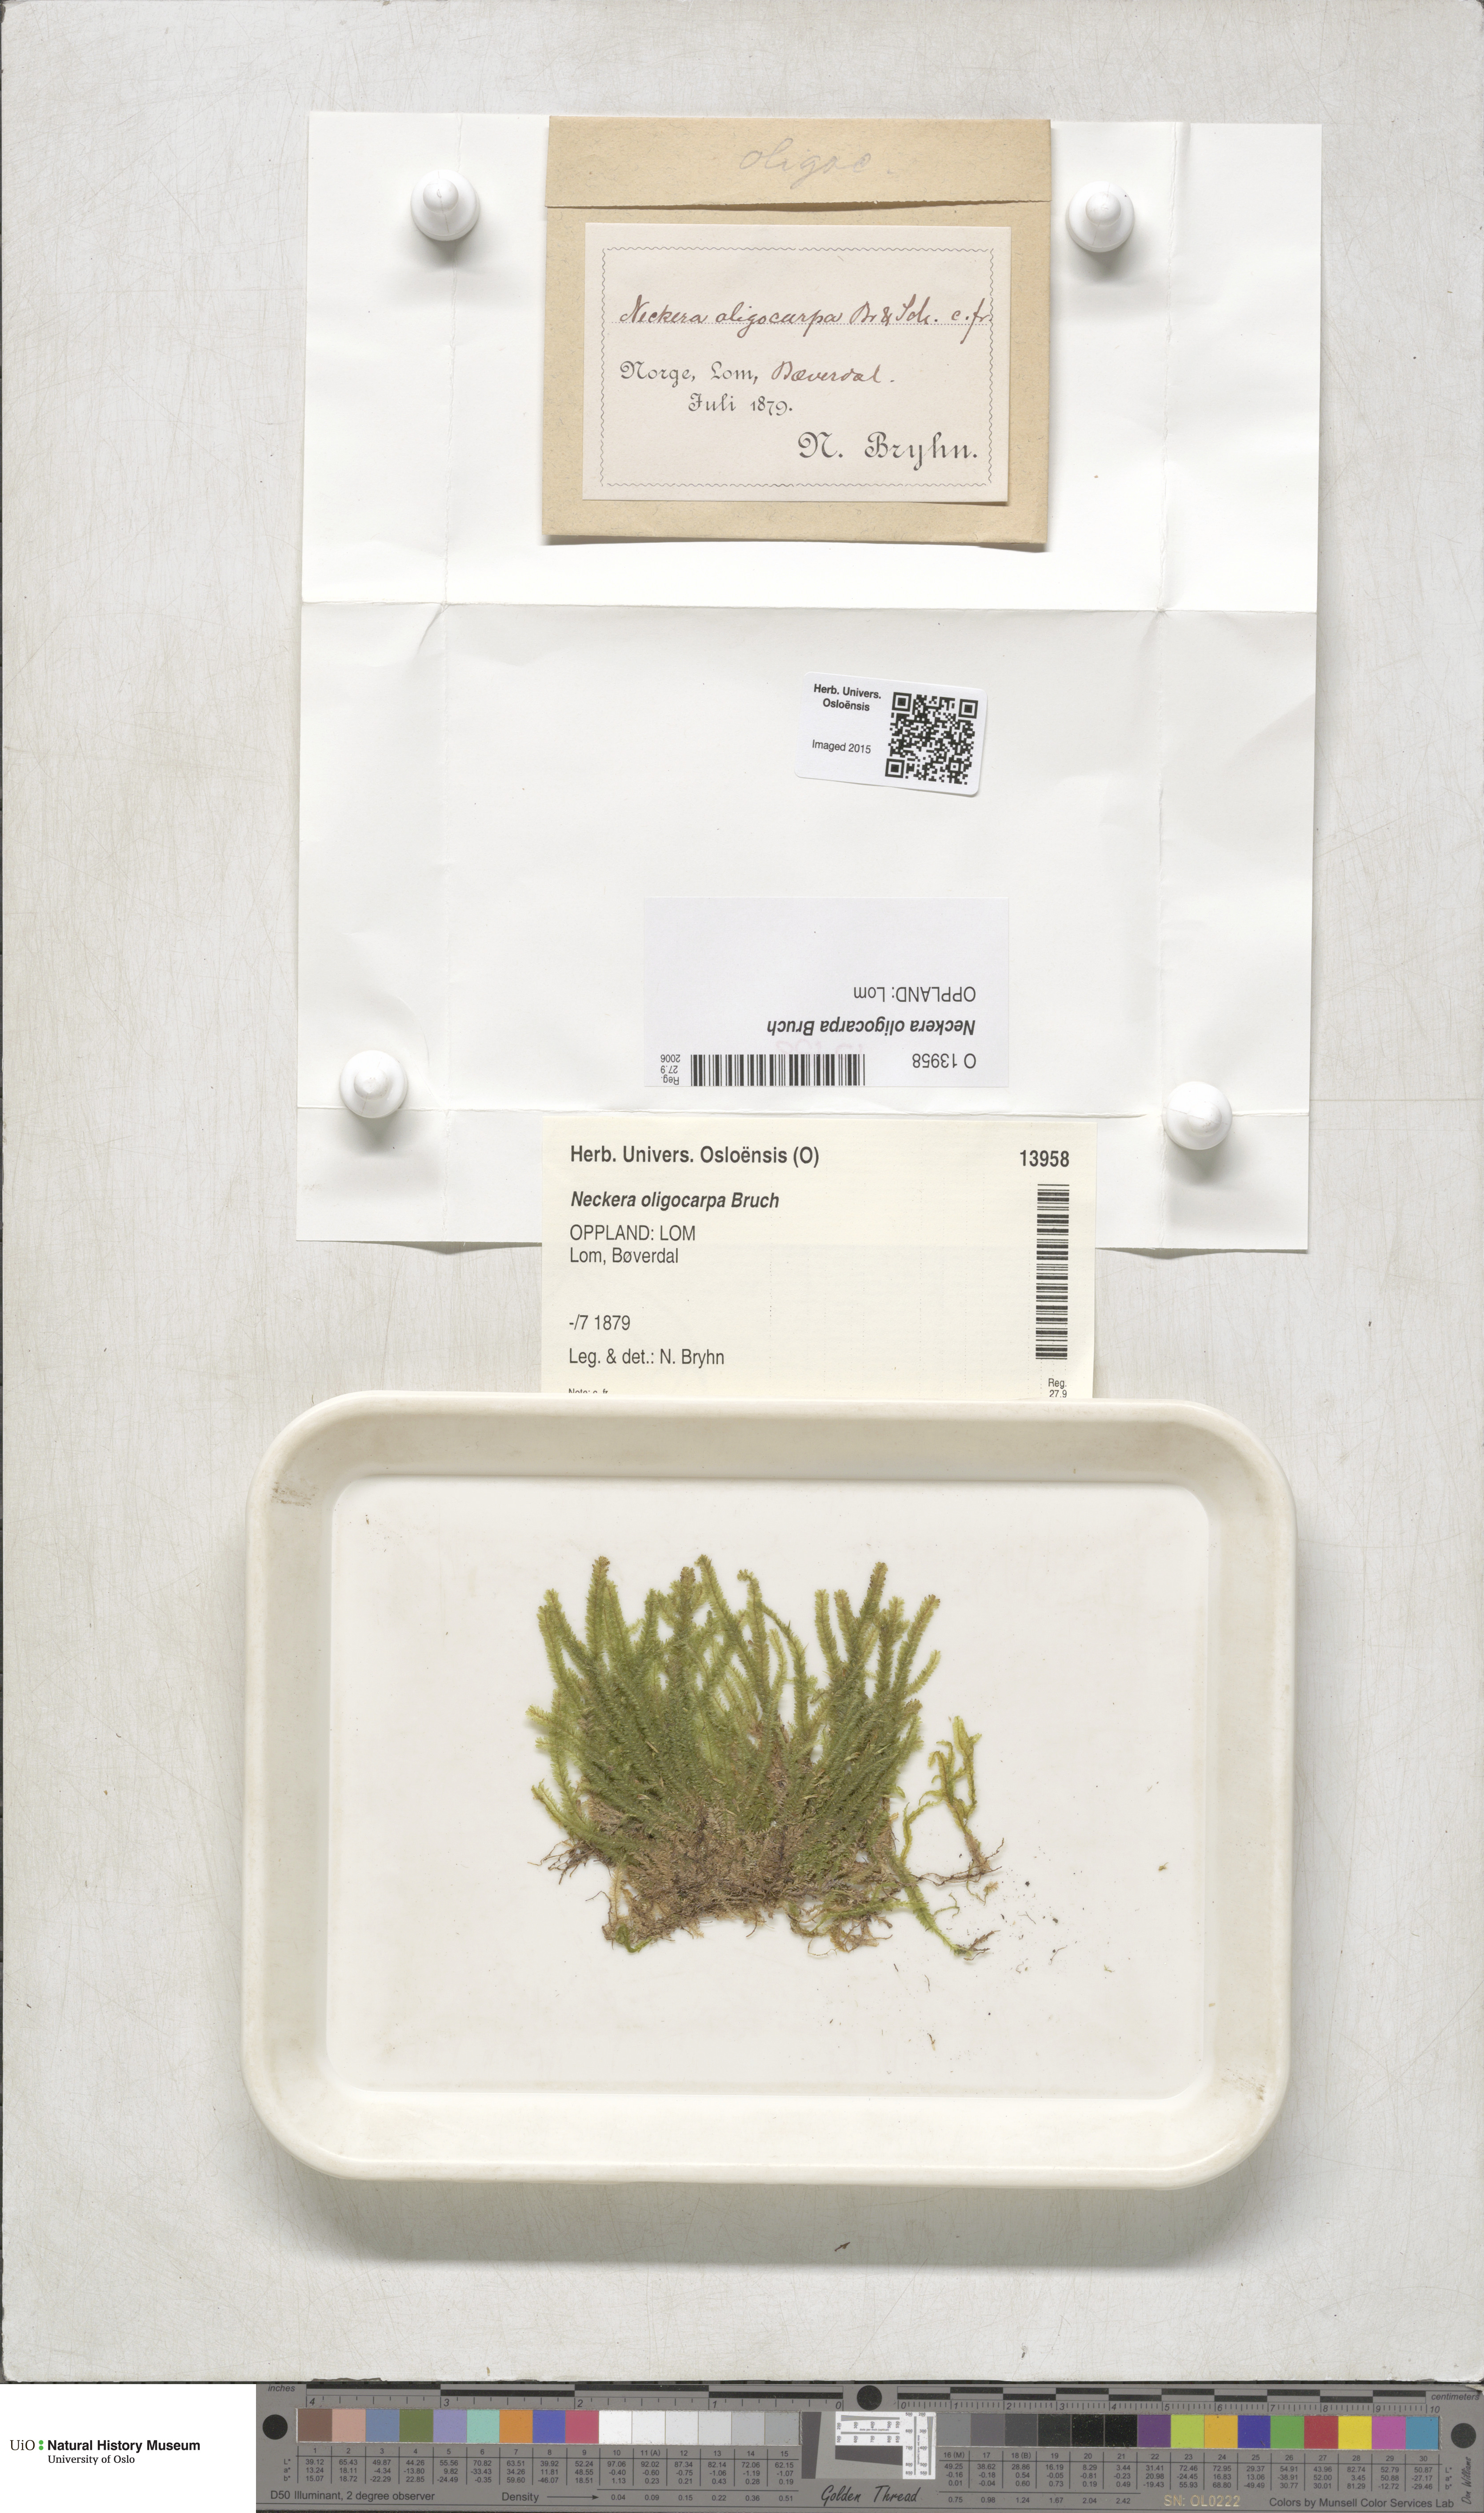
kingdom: Plantae
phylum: Bryophyta
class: Bryopsida
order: Hypnales
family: Neckeraceae
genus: Neckera
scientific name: Neckera oligocarpa
